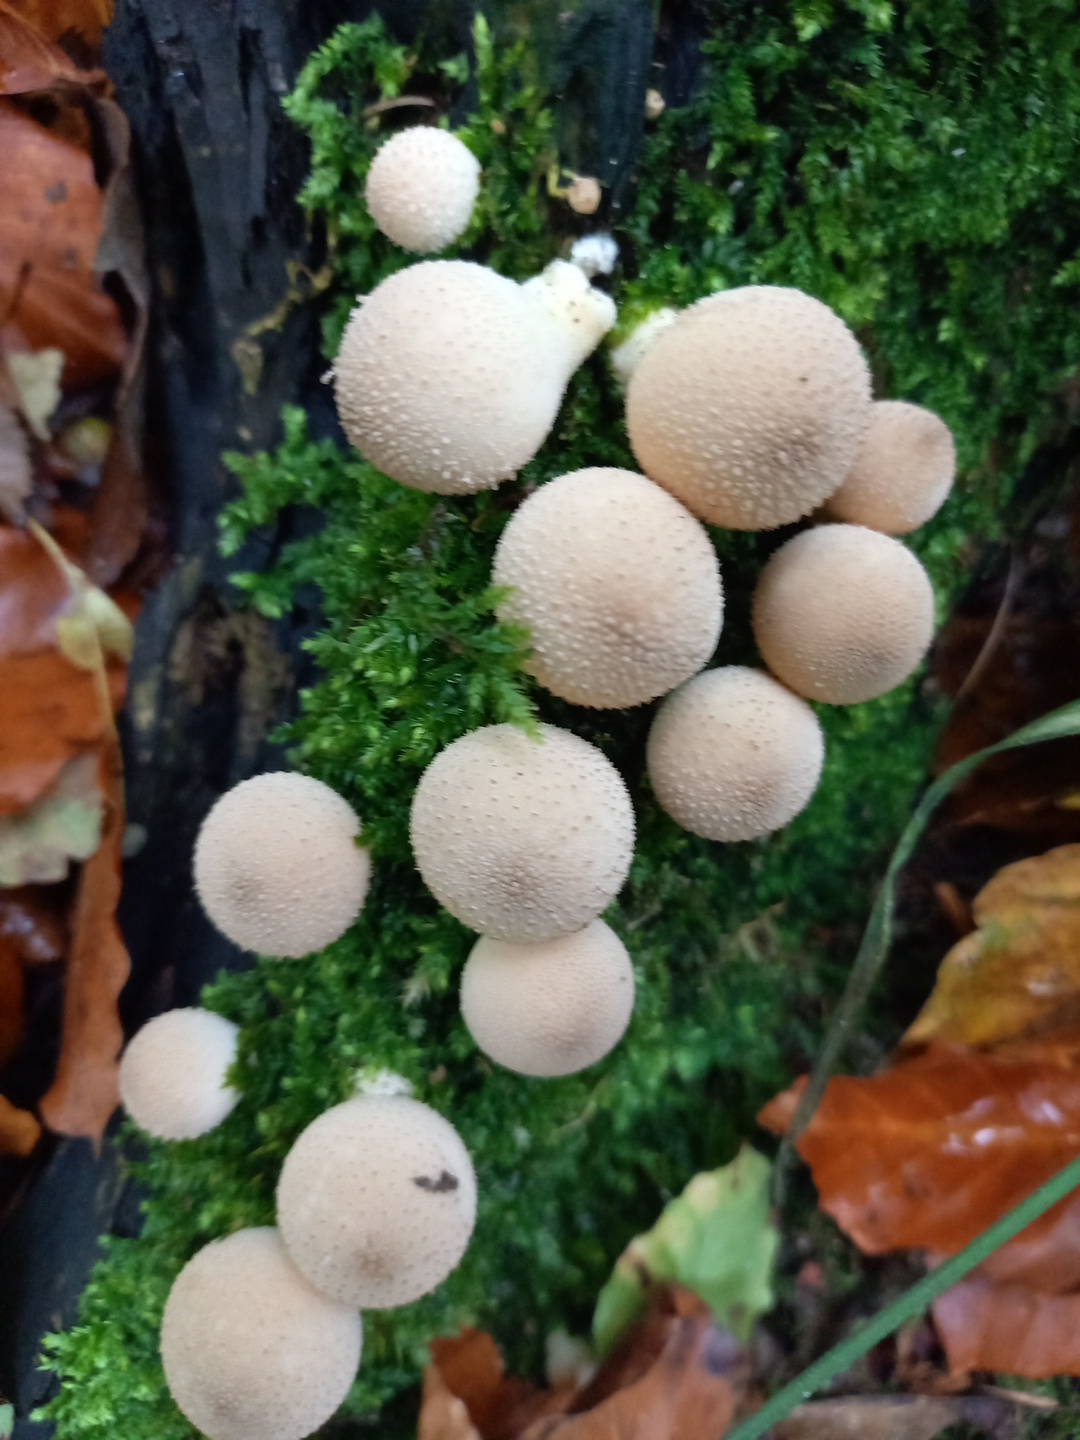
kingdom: Fungi
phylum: Basidiomycota
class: Agaricomycetes
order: Agaricales
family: Lycoperdaceae
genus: Apioperdon
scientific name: Apioperdon pyriforme
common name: pære-støvbold
